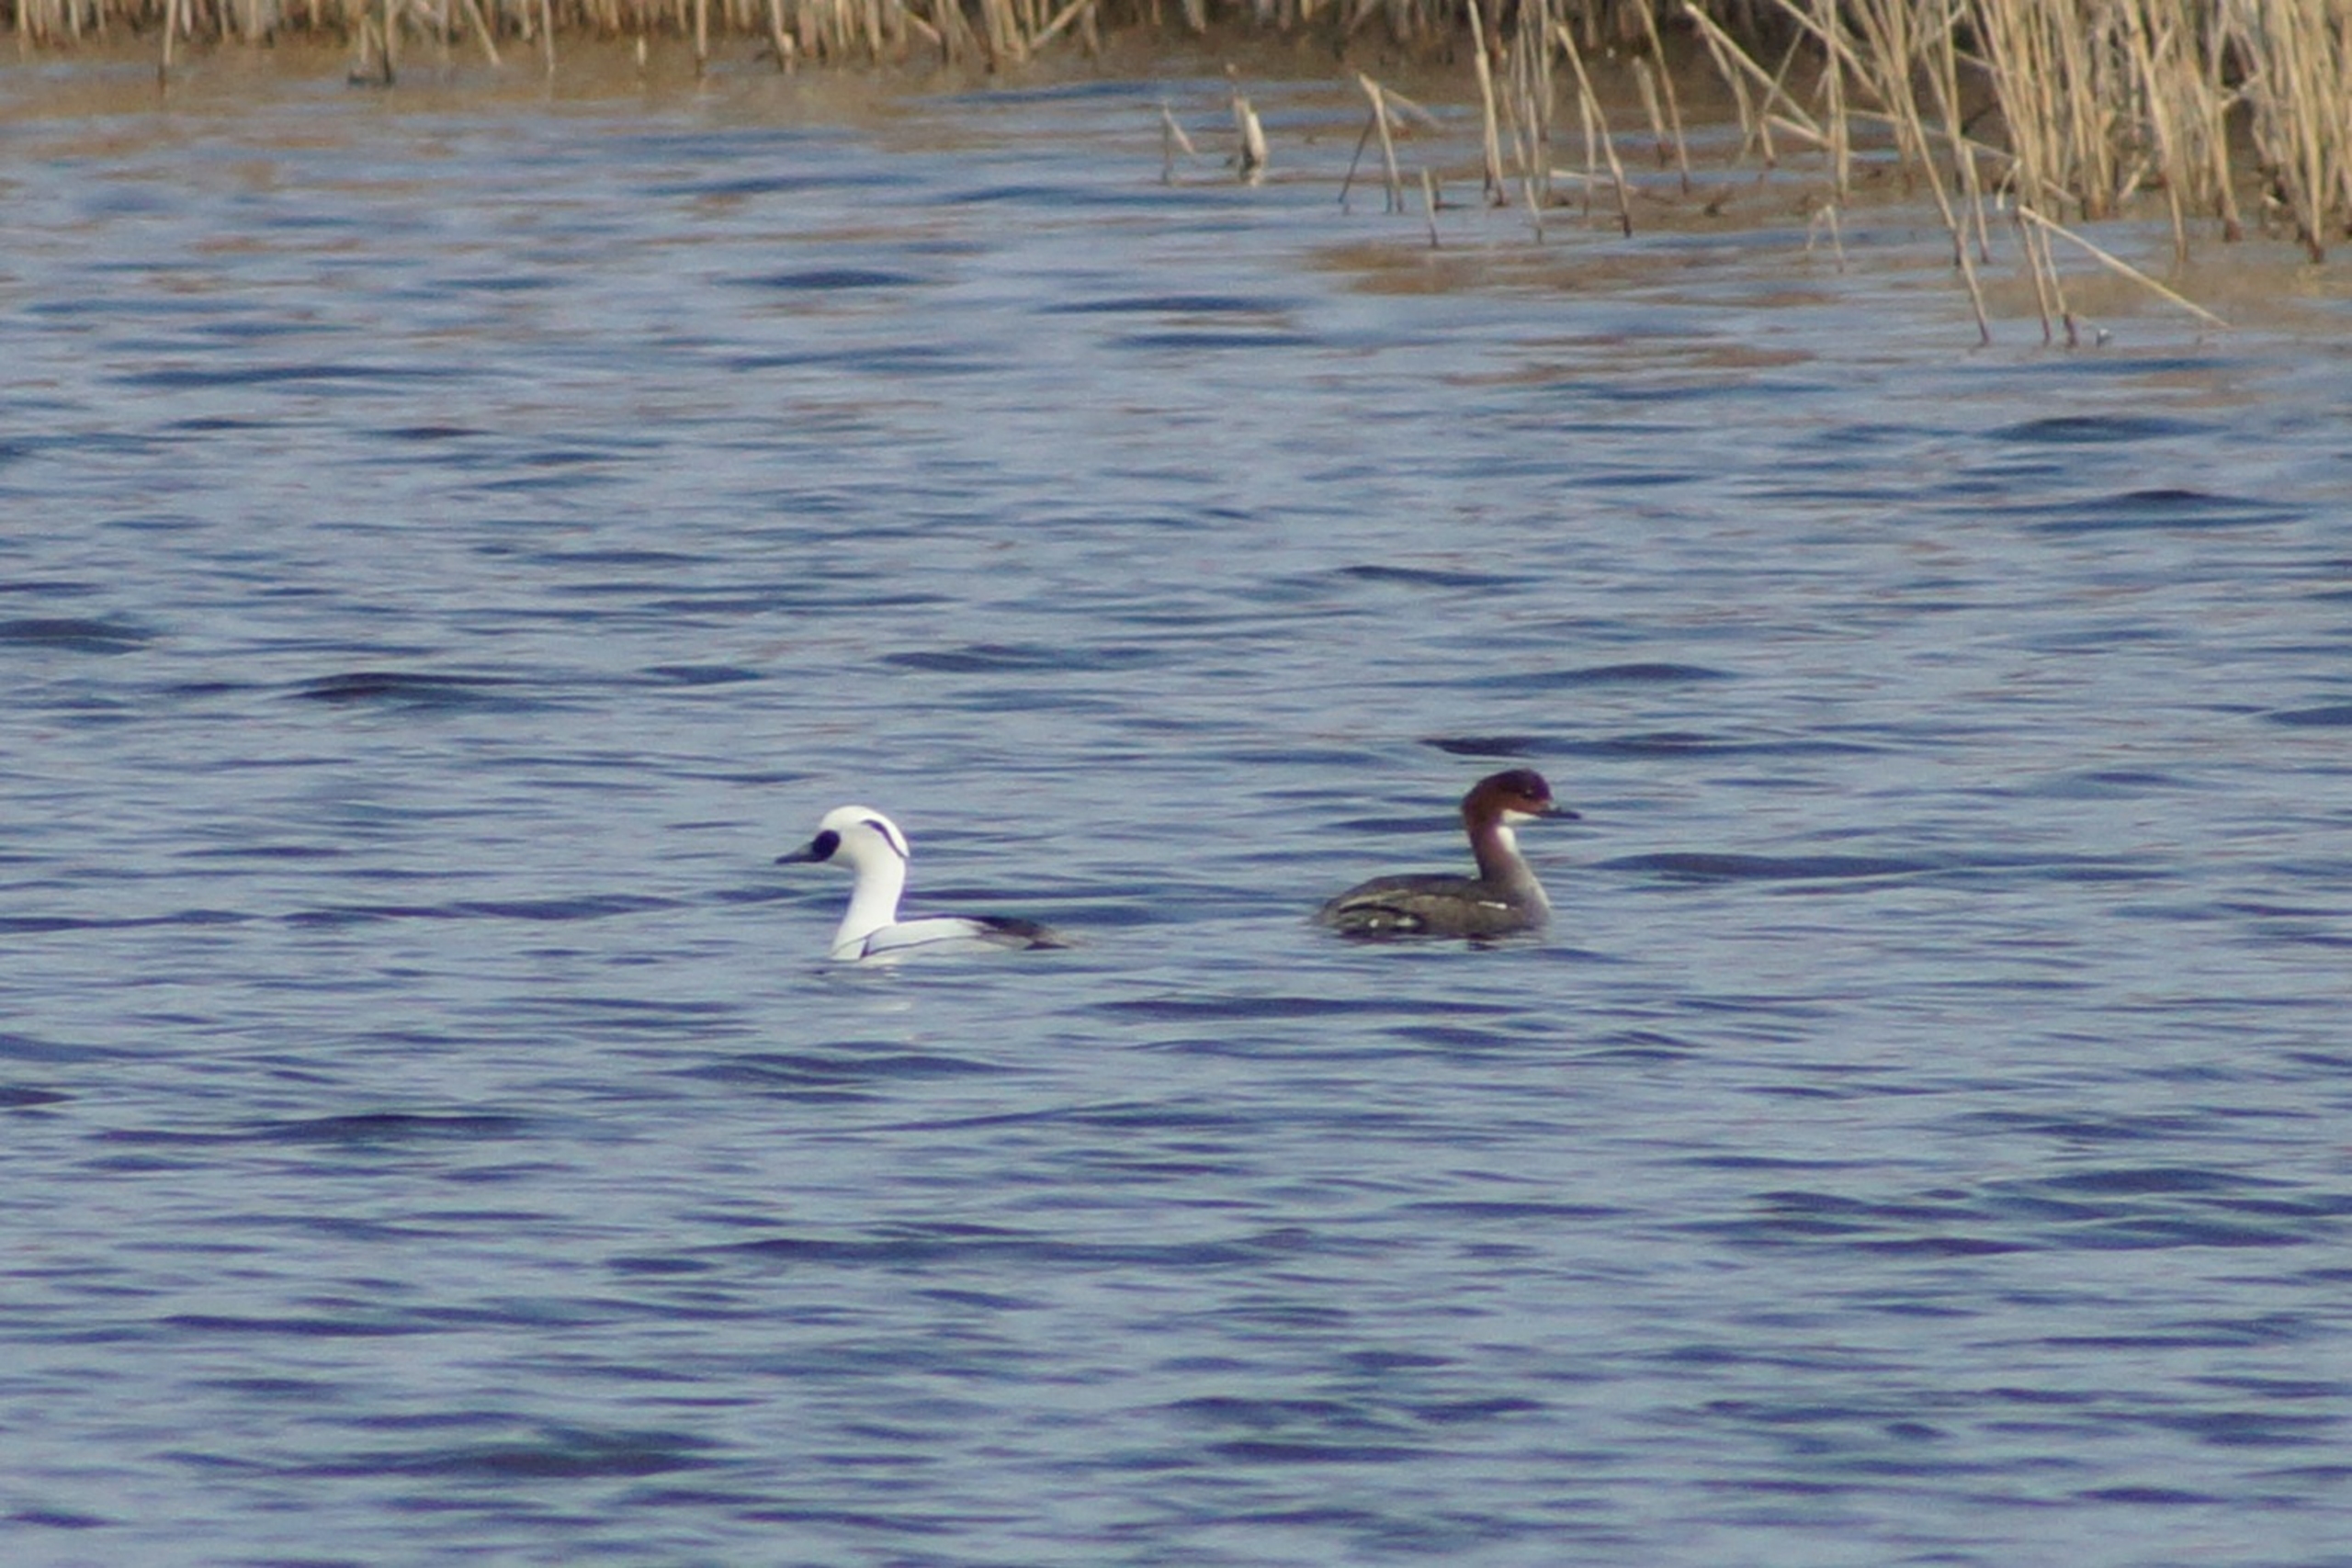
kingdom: Animalia
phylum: Chordata
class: Aves
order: Anseriformes
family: Anatidae
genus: Mergellus
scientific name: Mergellus albellus
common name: Lille skallesluger
